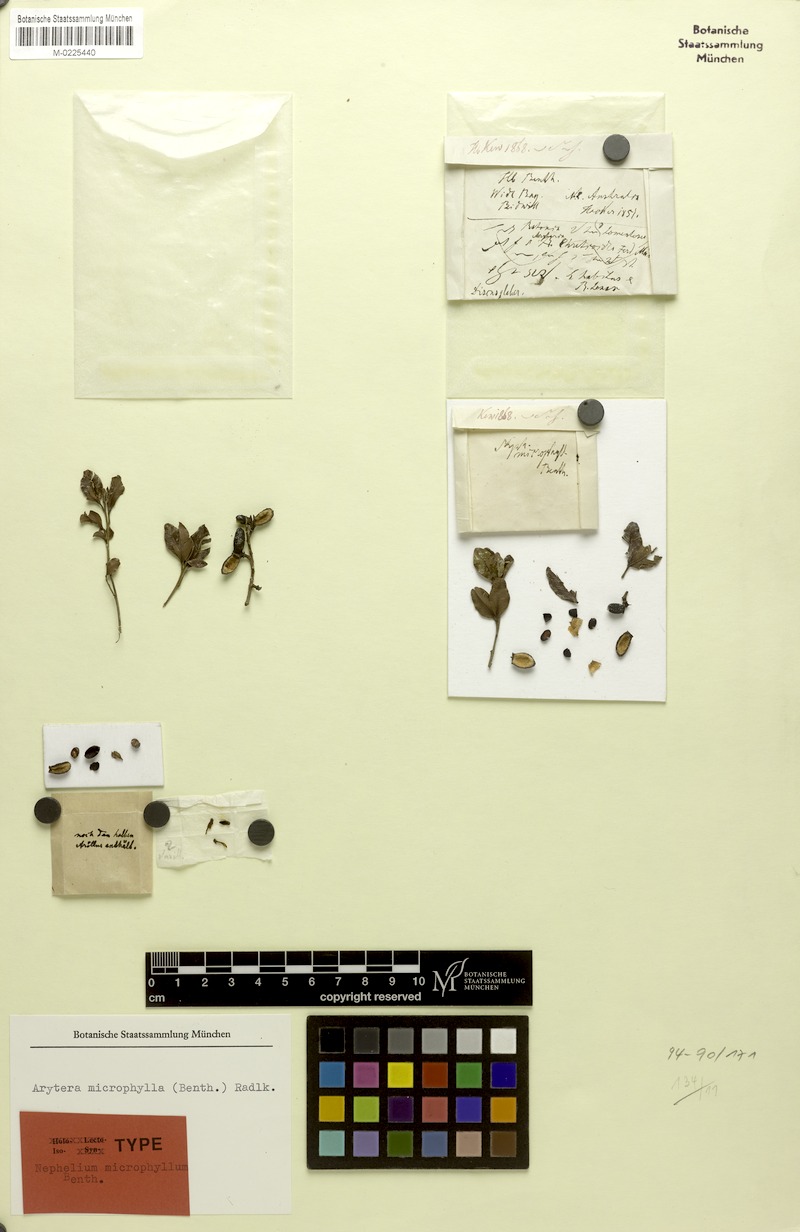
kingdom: Plantae
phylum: Tracheophyta
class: Magnoliopsida
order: Sapindales
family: Sapindaceae
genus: Arytera
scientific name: Arytera microphylla
